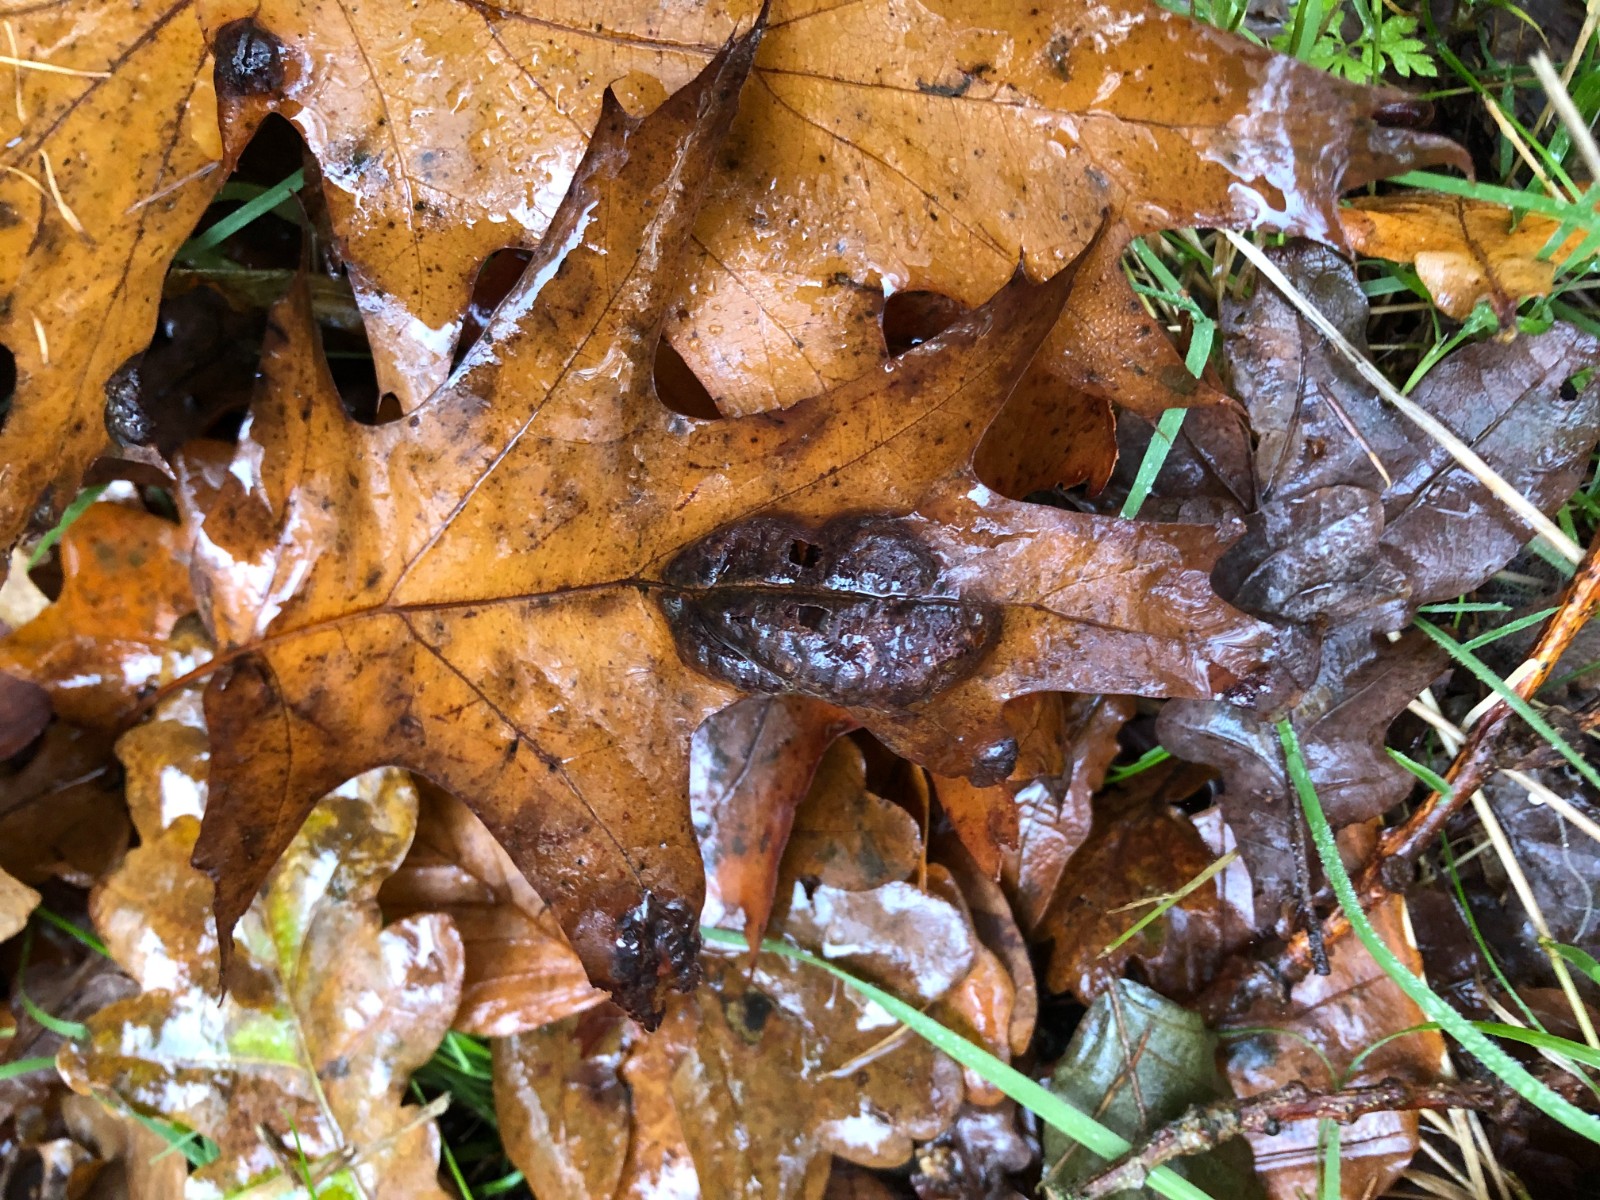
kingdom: Fungi
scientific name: Fungi
